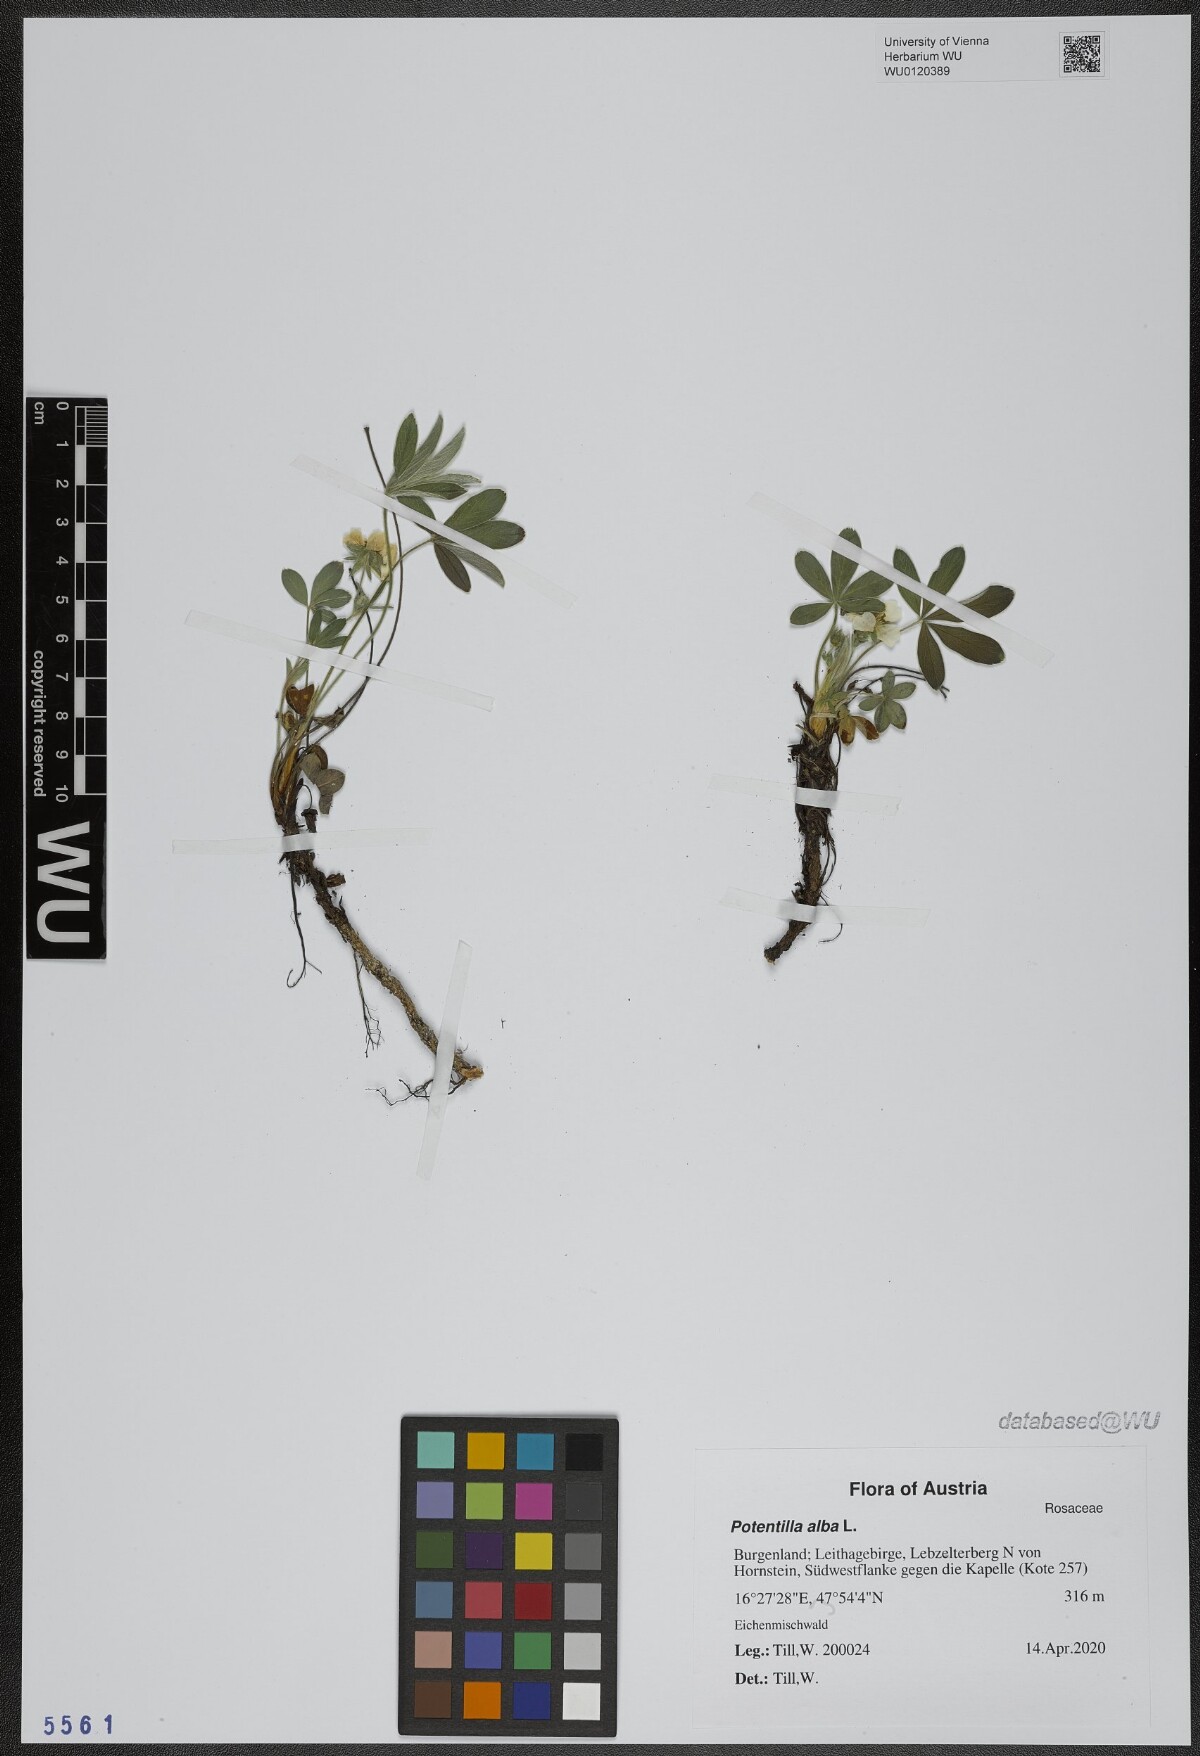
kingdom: Plantae
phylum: Tracheophyta
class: Magnoliopsida
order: Rosales
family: Rosaceae
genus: Potentilla
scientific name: Potentilla alba
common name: White cinquefoil
